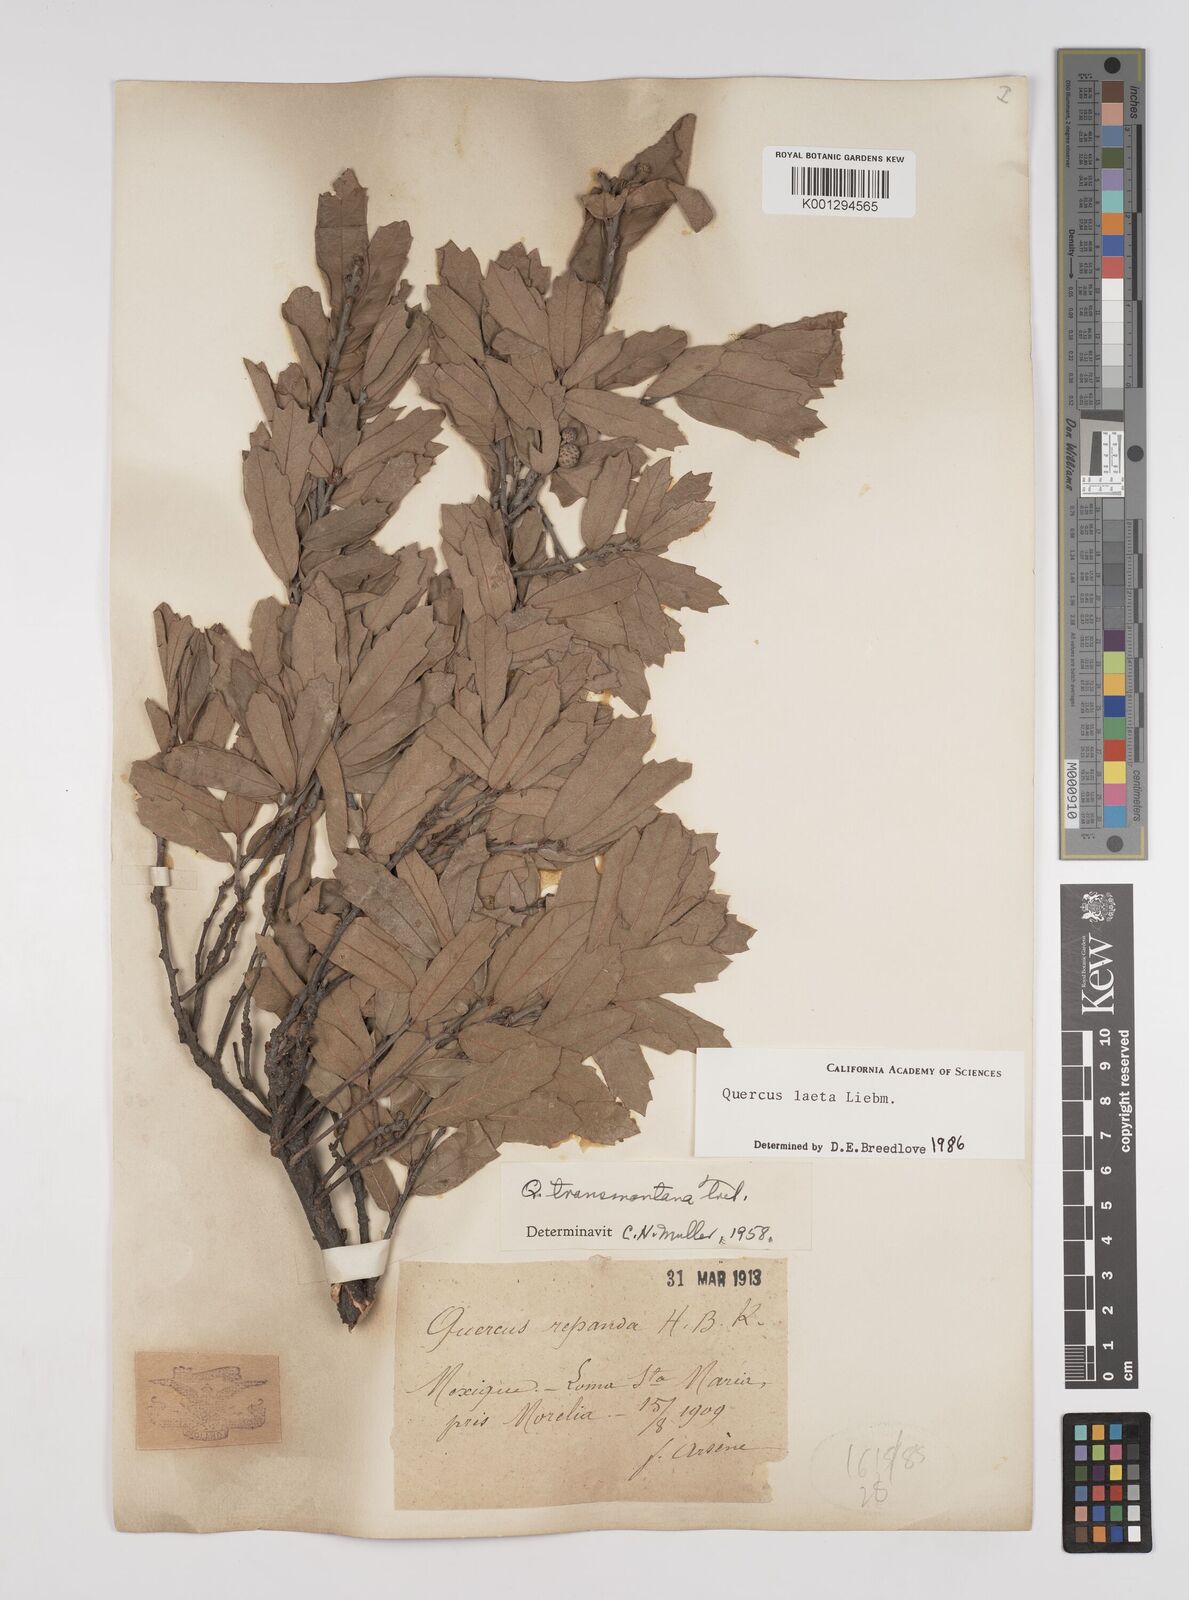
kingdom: Plantae
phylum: Tracheophyta
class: Magnoliopsida
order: Fagales
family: Fagaceae
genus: Quercus
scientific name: Quercus laeta
